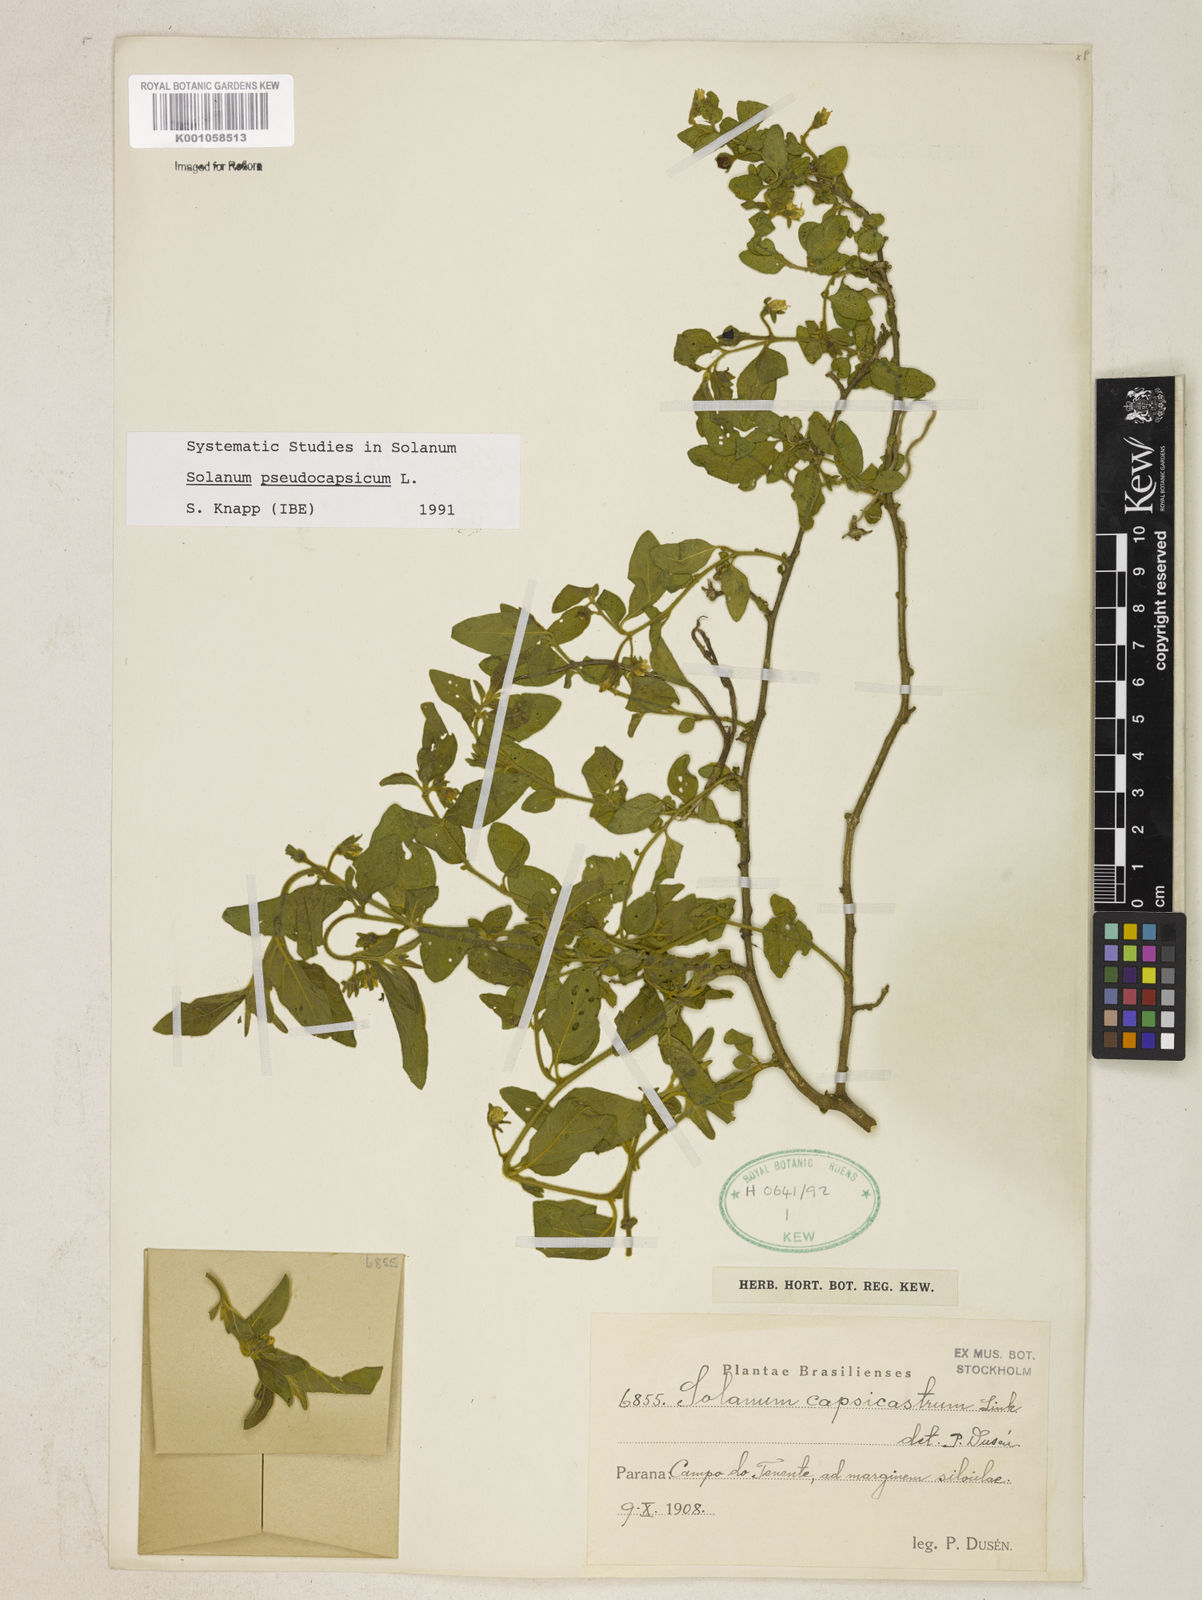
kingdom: Plantae
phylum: Tracheophyta
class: Magnoliopsida
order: Solanales
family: Solanaceae
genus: Solanum
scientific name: Solanum pseudocapsicum
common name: Jerusalem cherry
